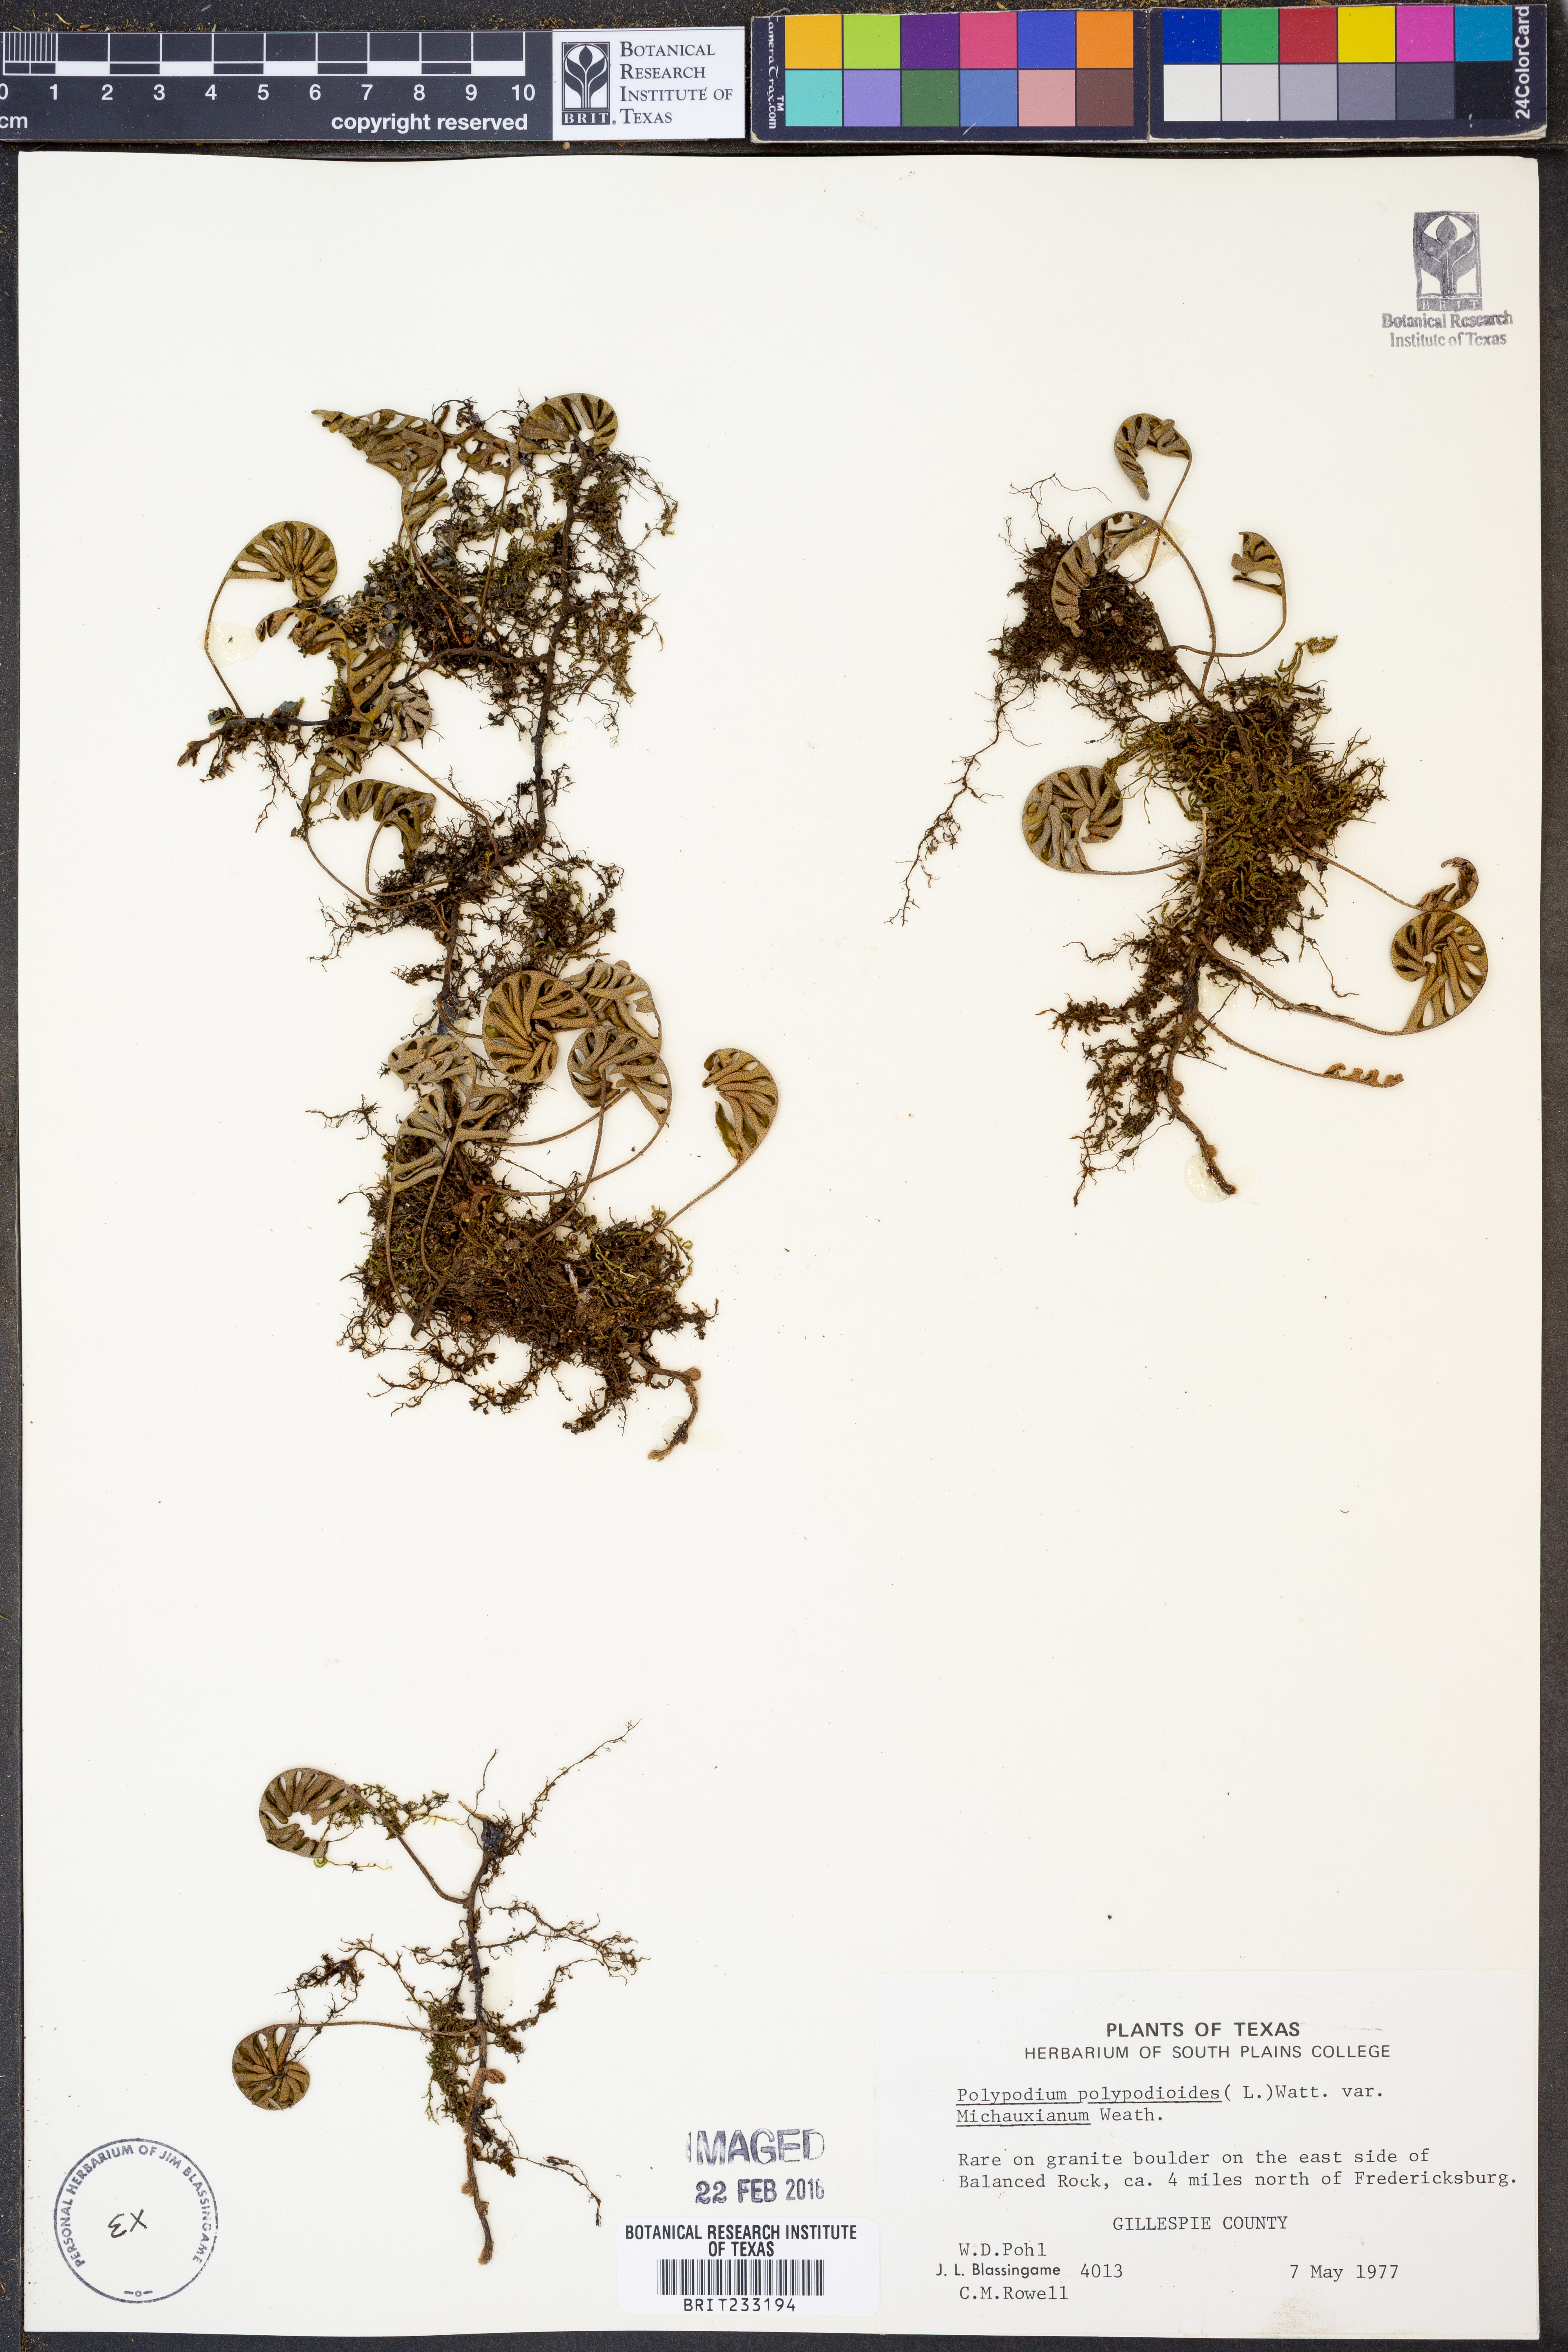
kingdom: Plantae
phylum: Tracheophyta
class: Polypodiopsida
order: Polypodiales
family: Polypodiaceae
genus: Pleopeltis
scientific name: Pleopeltis michauxiana
